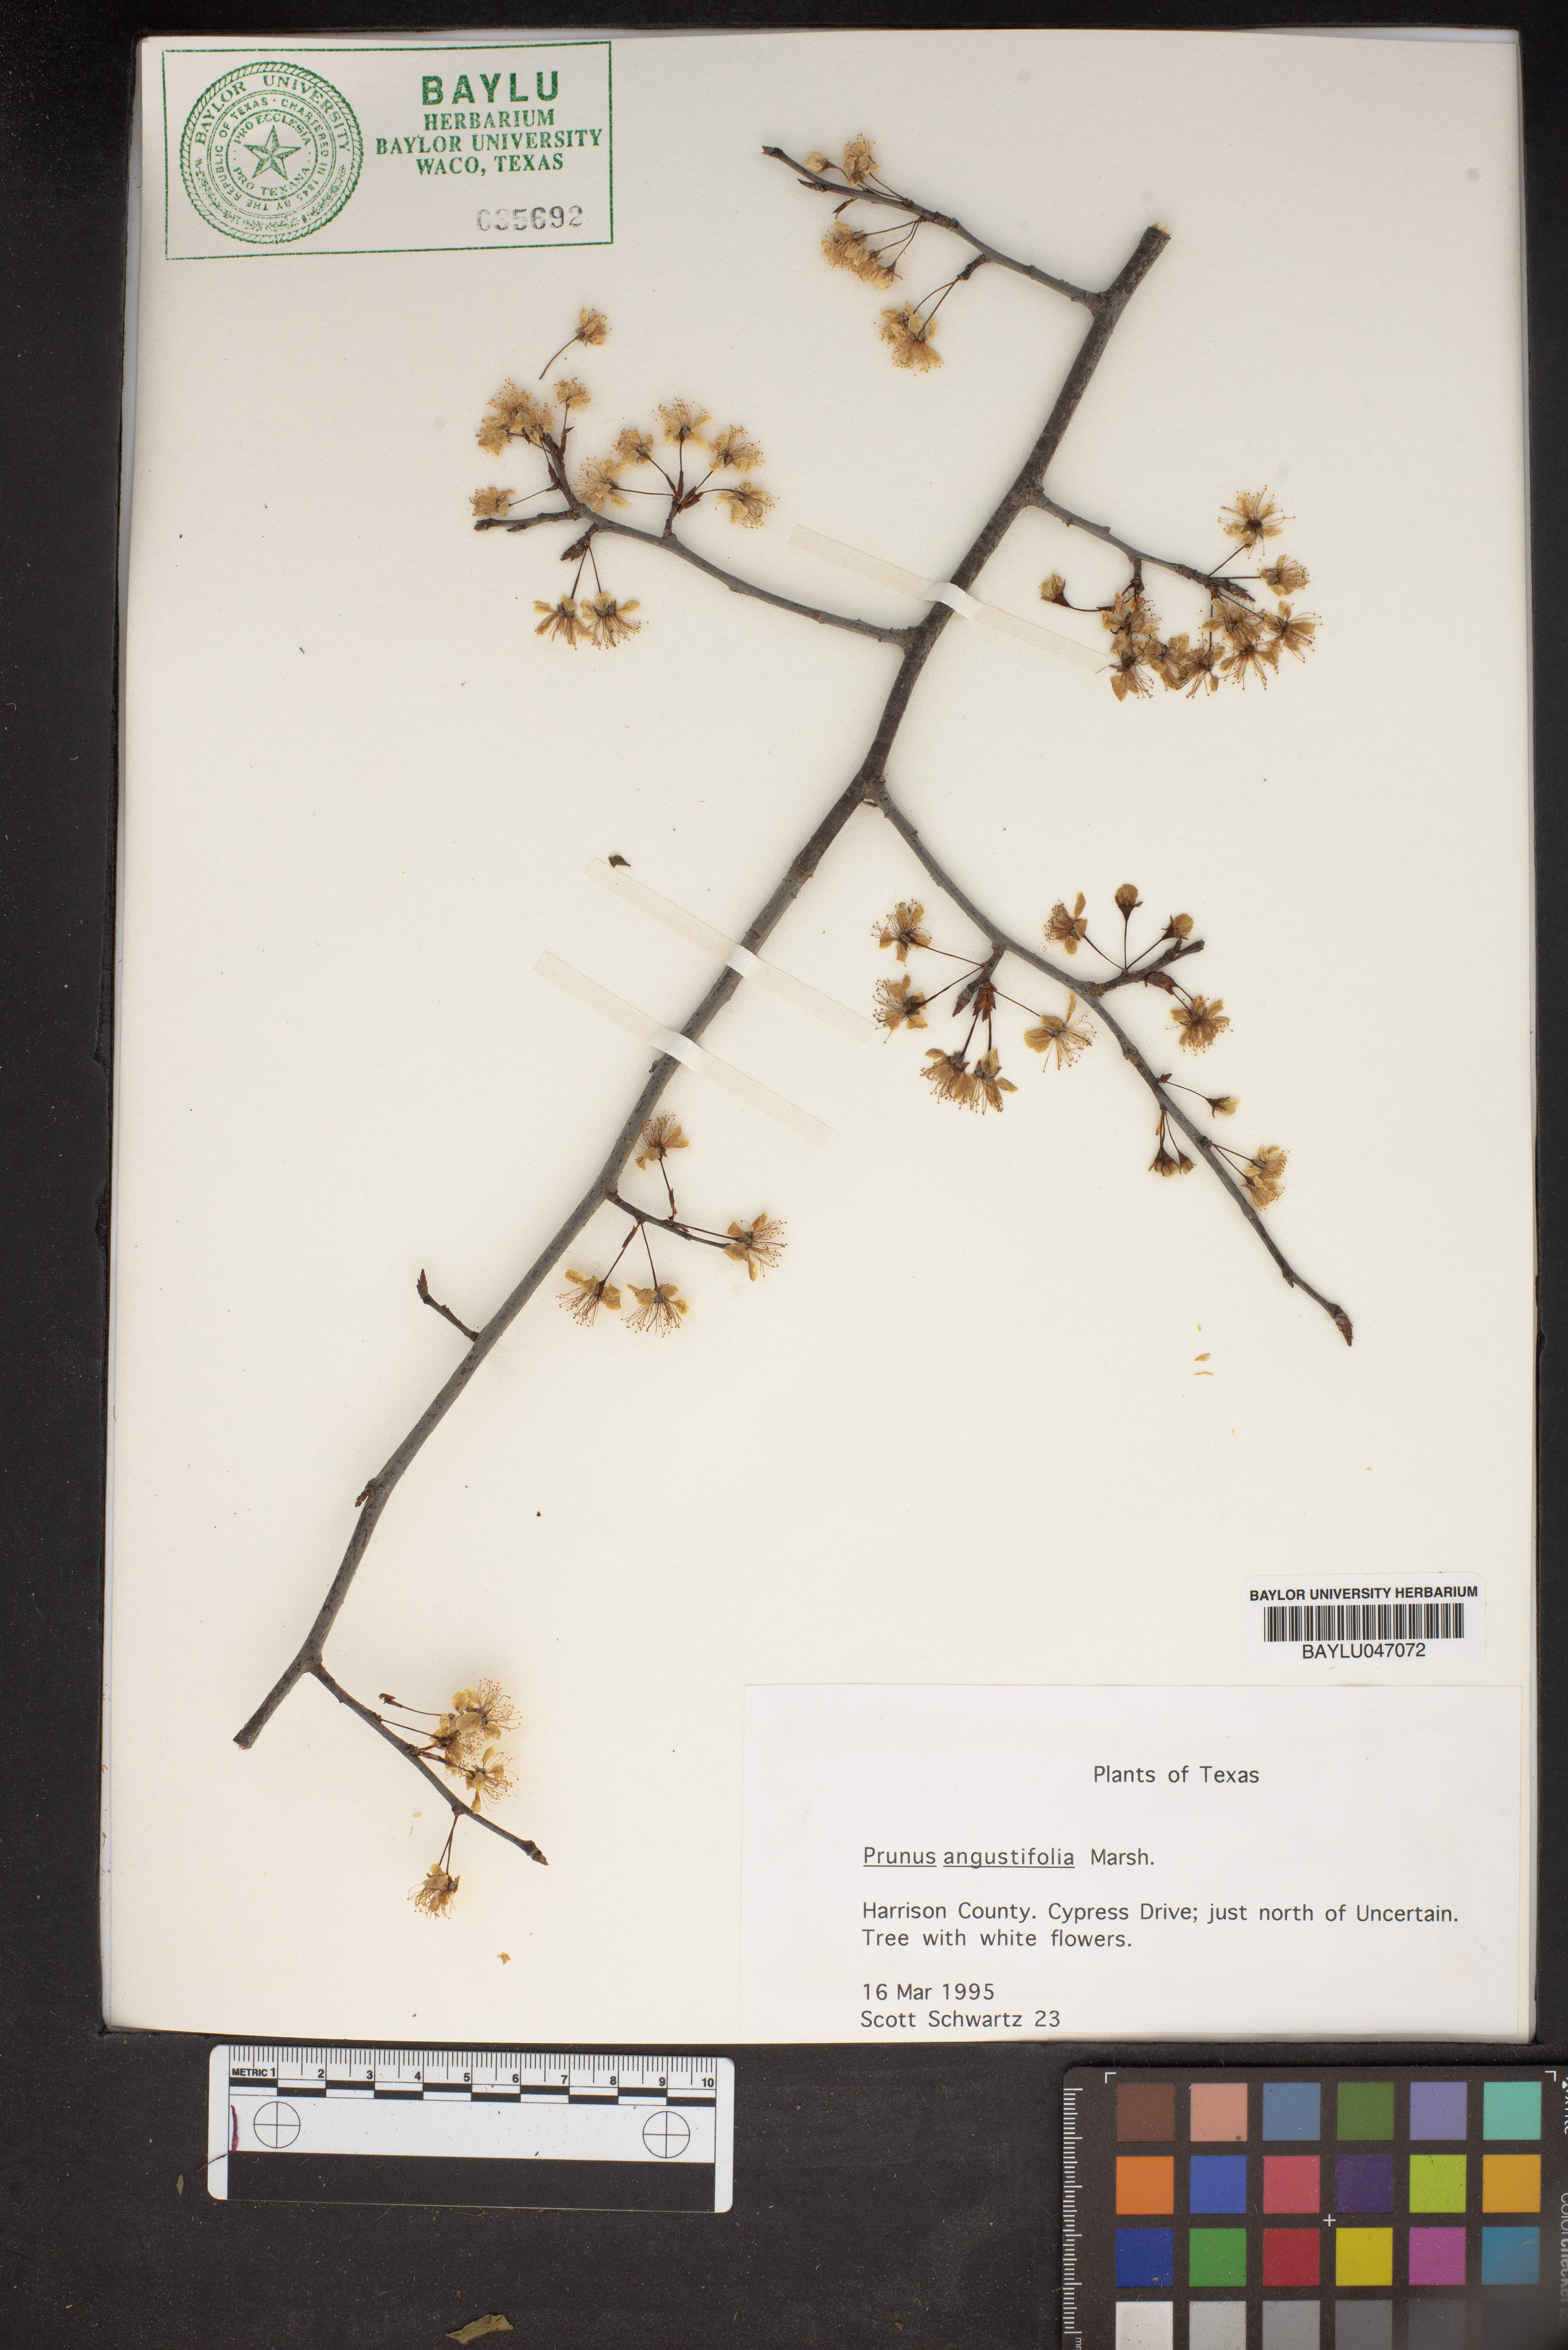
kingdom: Plantae
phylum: Tracheophyta
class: Magnoliopsida
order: Rosales
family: Rosaceae
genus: Prunus
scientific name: Prunus angustifolia
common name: Cherokee plum
